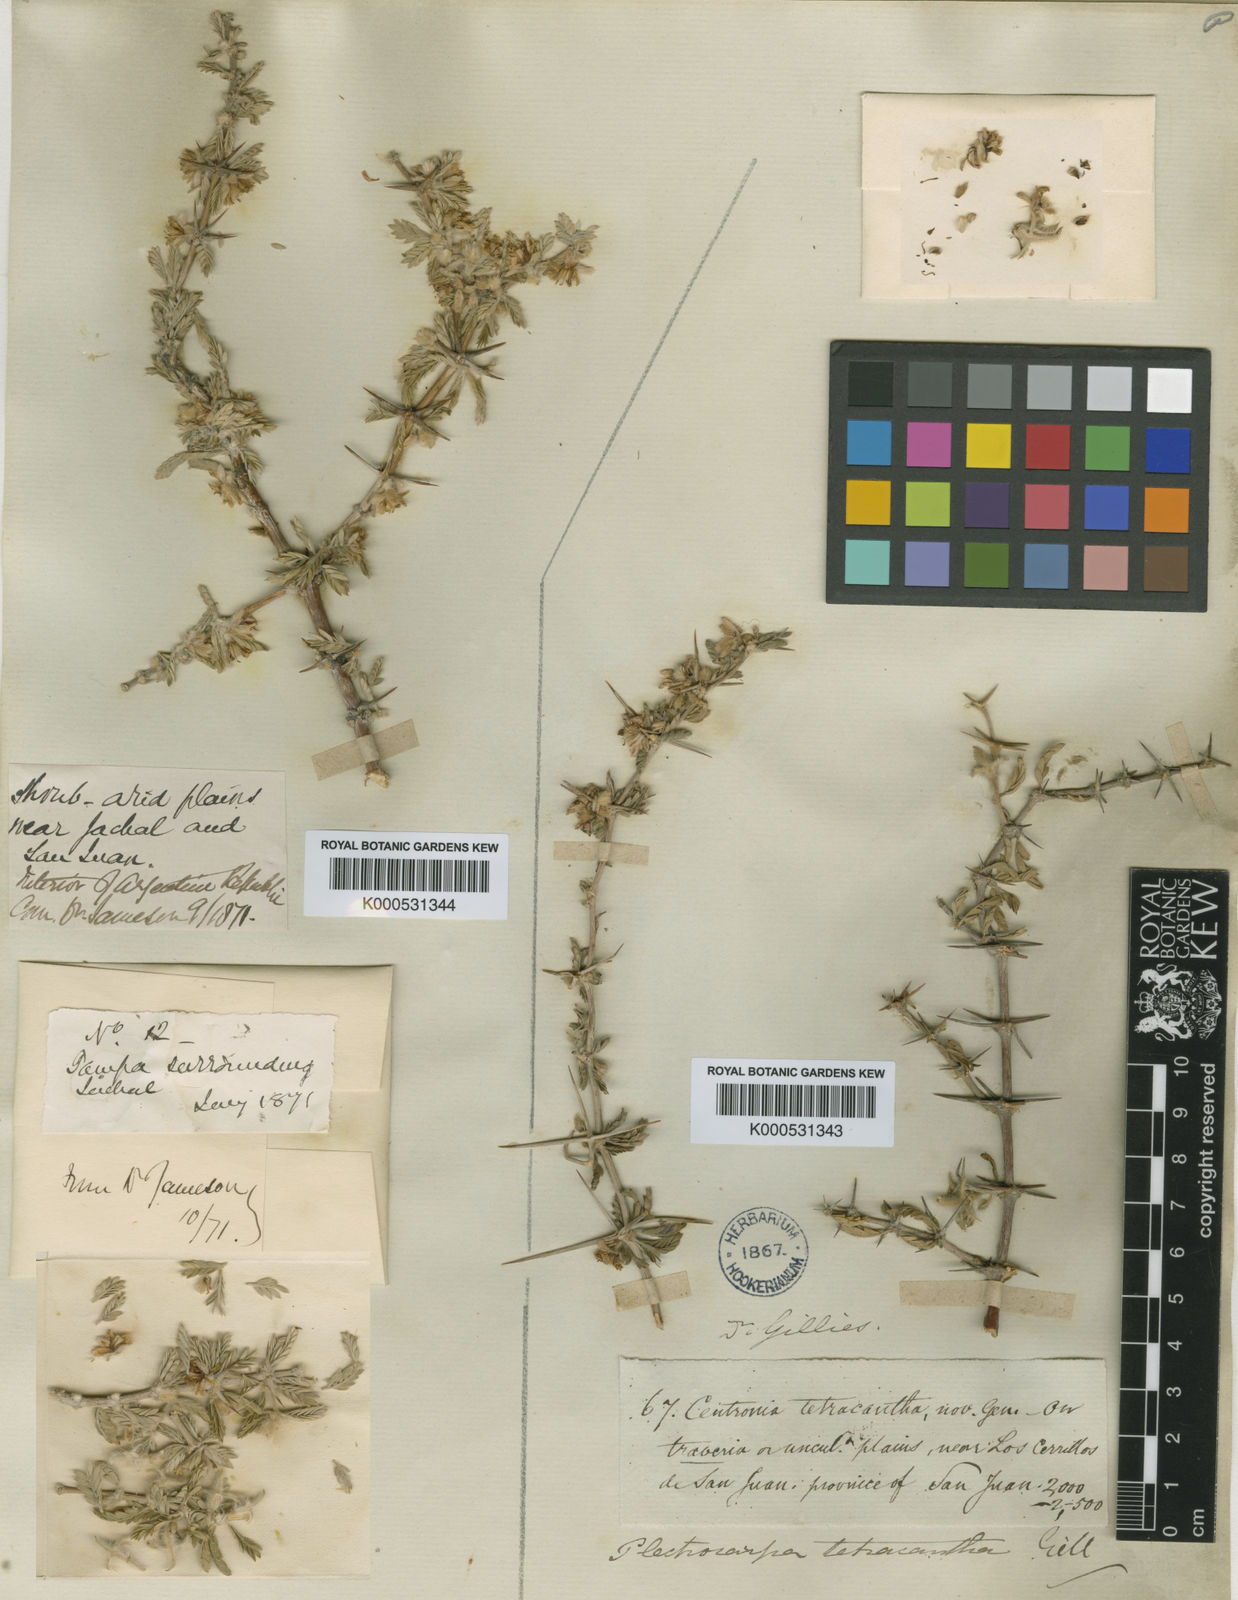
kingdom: Plantae
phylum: Tracheophyta
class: Magnoliopsida
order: Zygophyllales
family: Zygophyllaceae
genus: Plectrocarpa
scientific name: Plectrocarpa tetracantha
